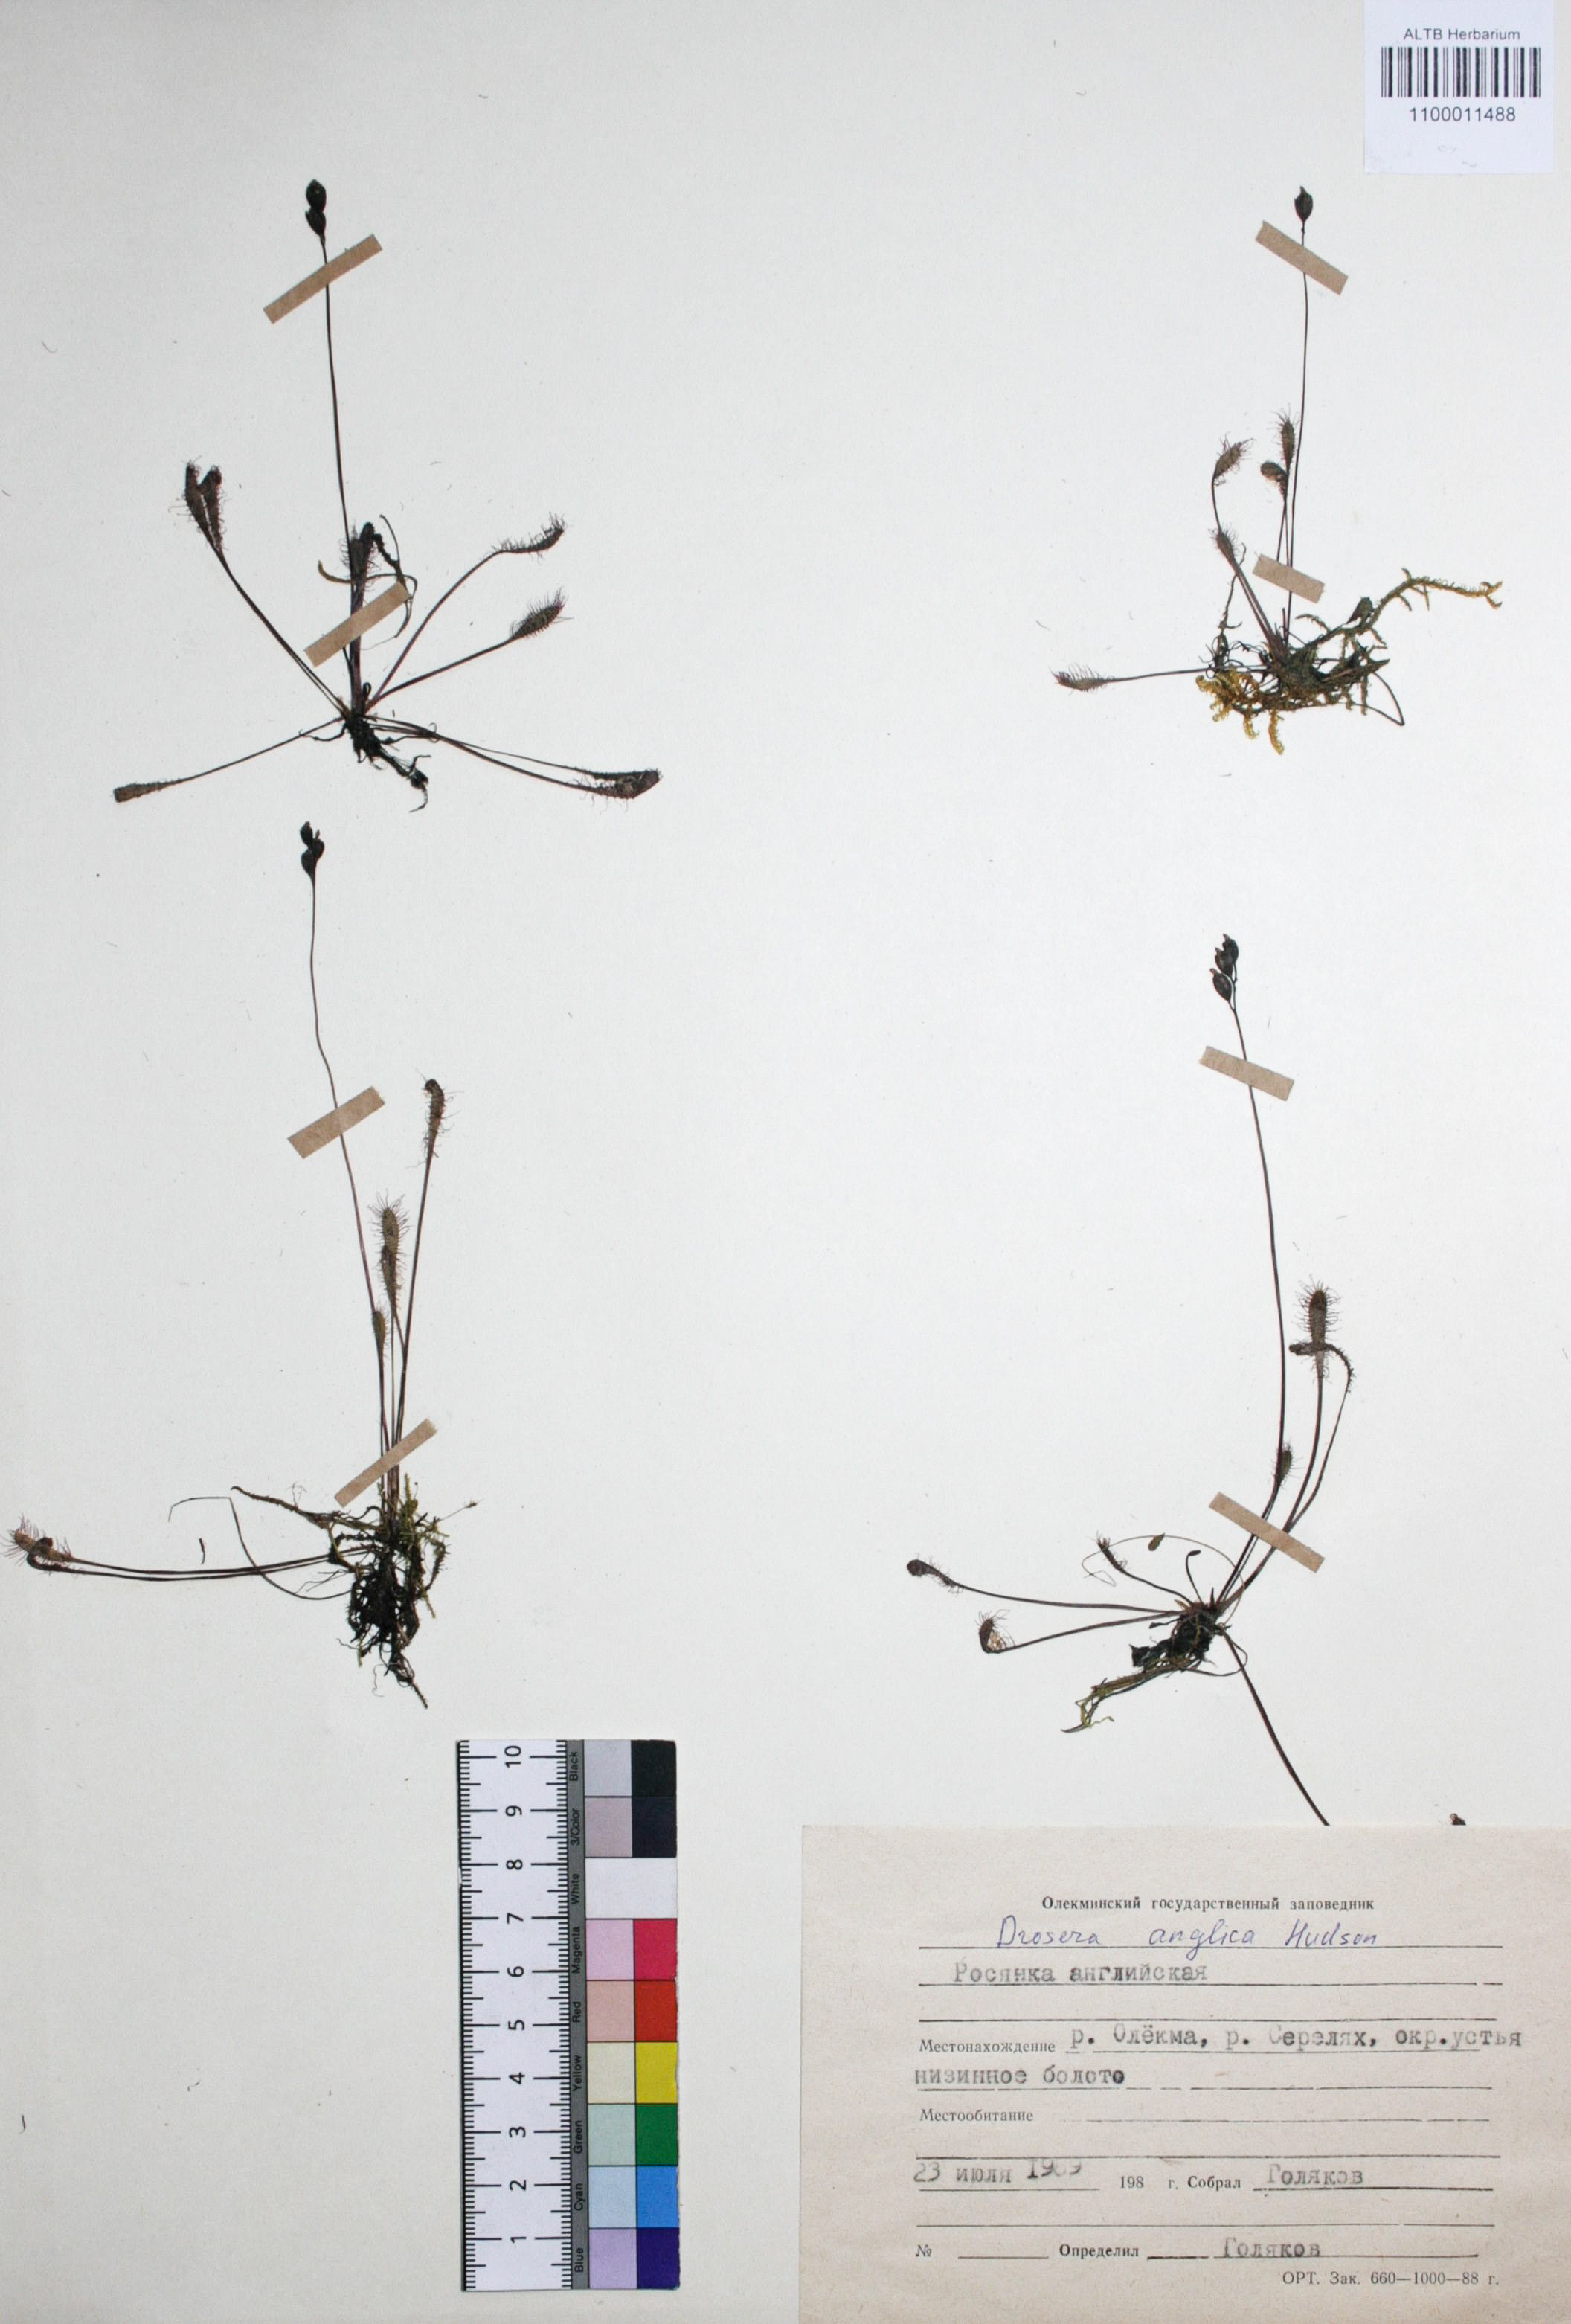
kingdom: Plantae
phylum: Tracheophyta
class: Magnoliopsida
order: Caryophyllales
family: Droseraceae
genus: Drosera
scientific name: Drosera anglica
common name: Great sundew
